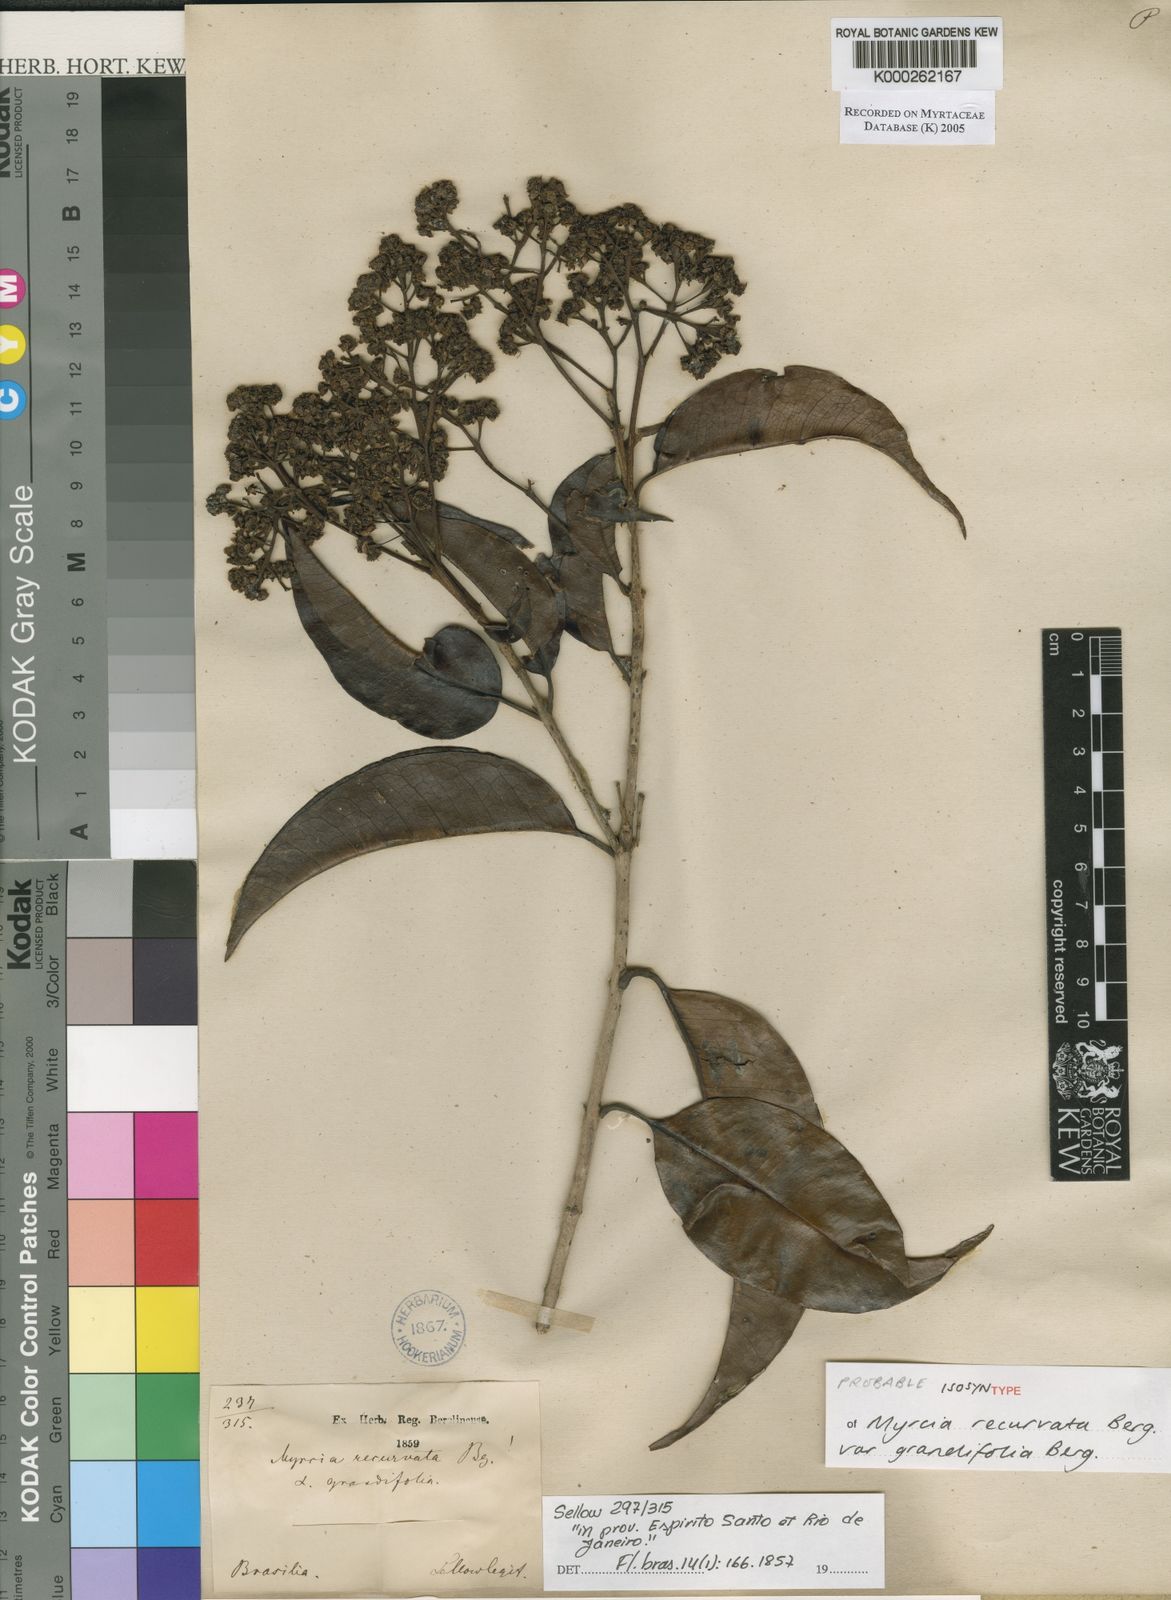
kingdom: Plantae
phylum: Tracheophyta
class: Magnoliopsida
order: Myrtales
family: Myrtaceae
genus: Myrcia
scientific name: Myrcia recurvata
